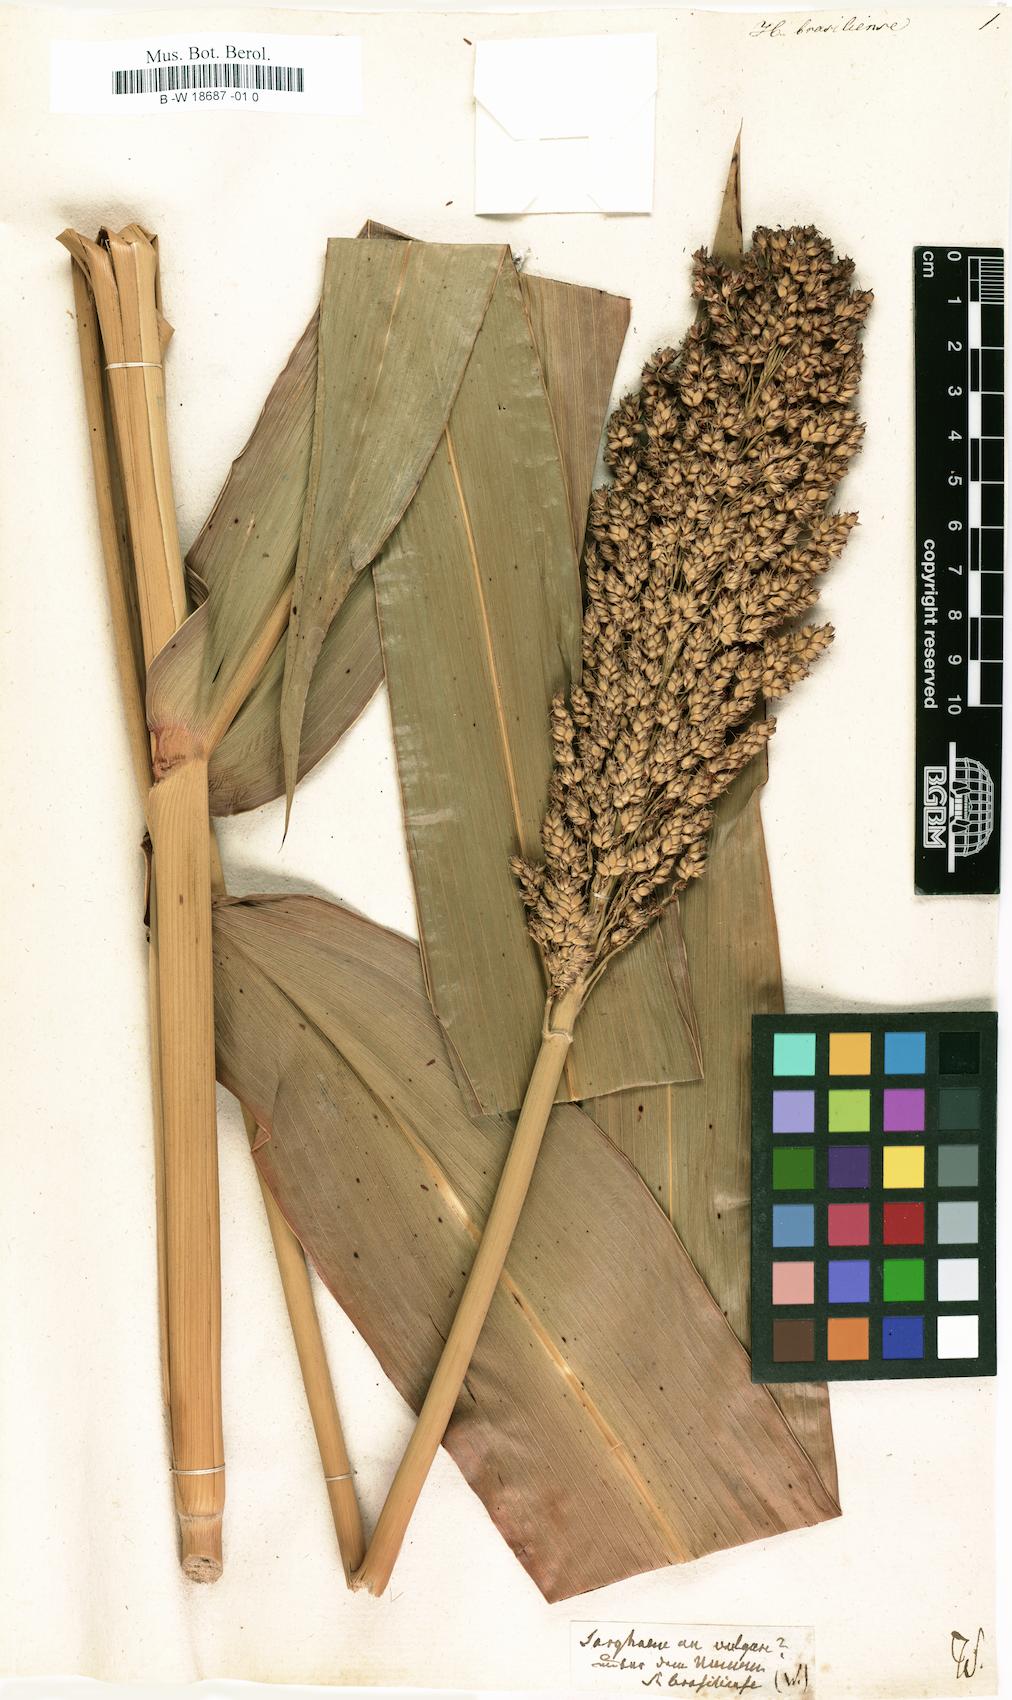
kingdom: Plantae
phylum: Tracheophyta
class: Liliopsida
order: Poales
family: Poaceae
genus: Holcus
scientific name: Holcus
